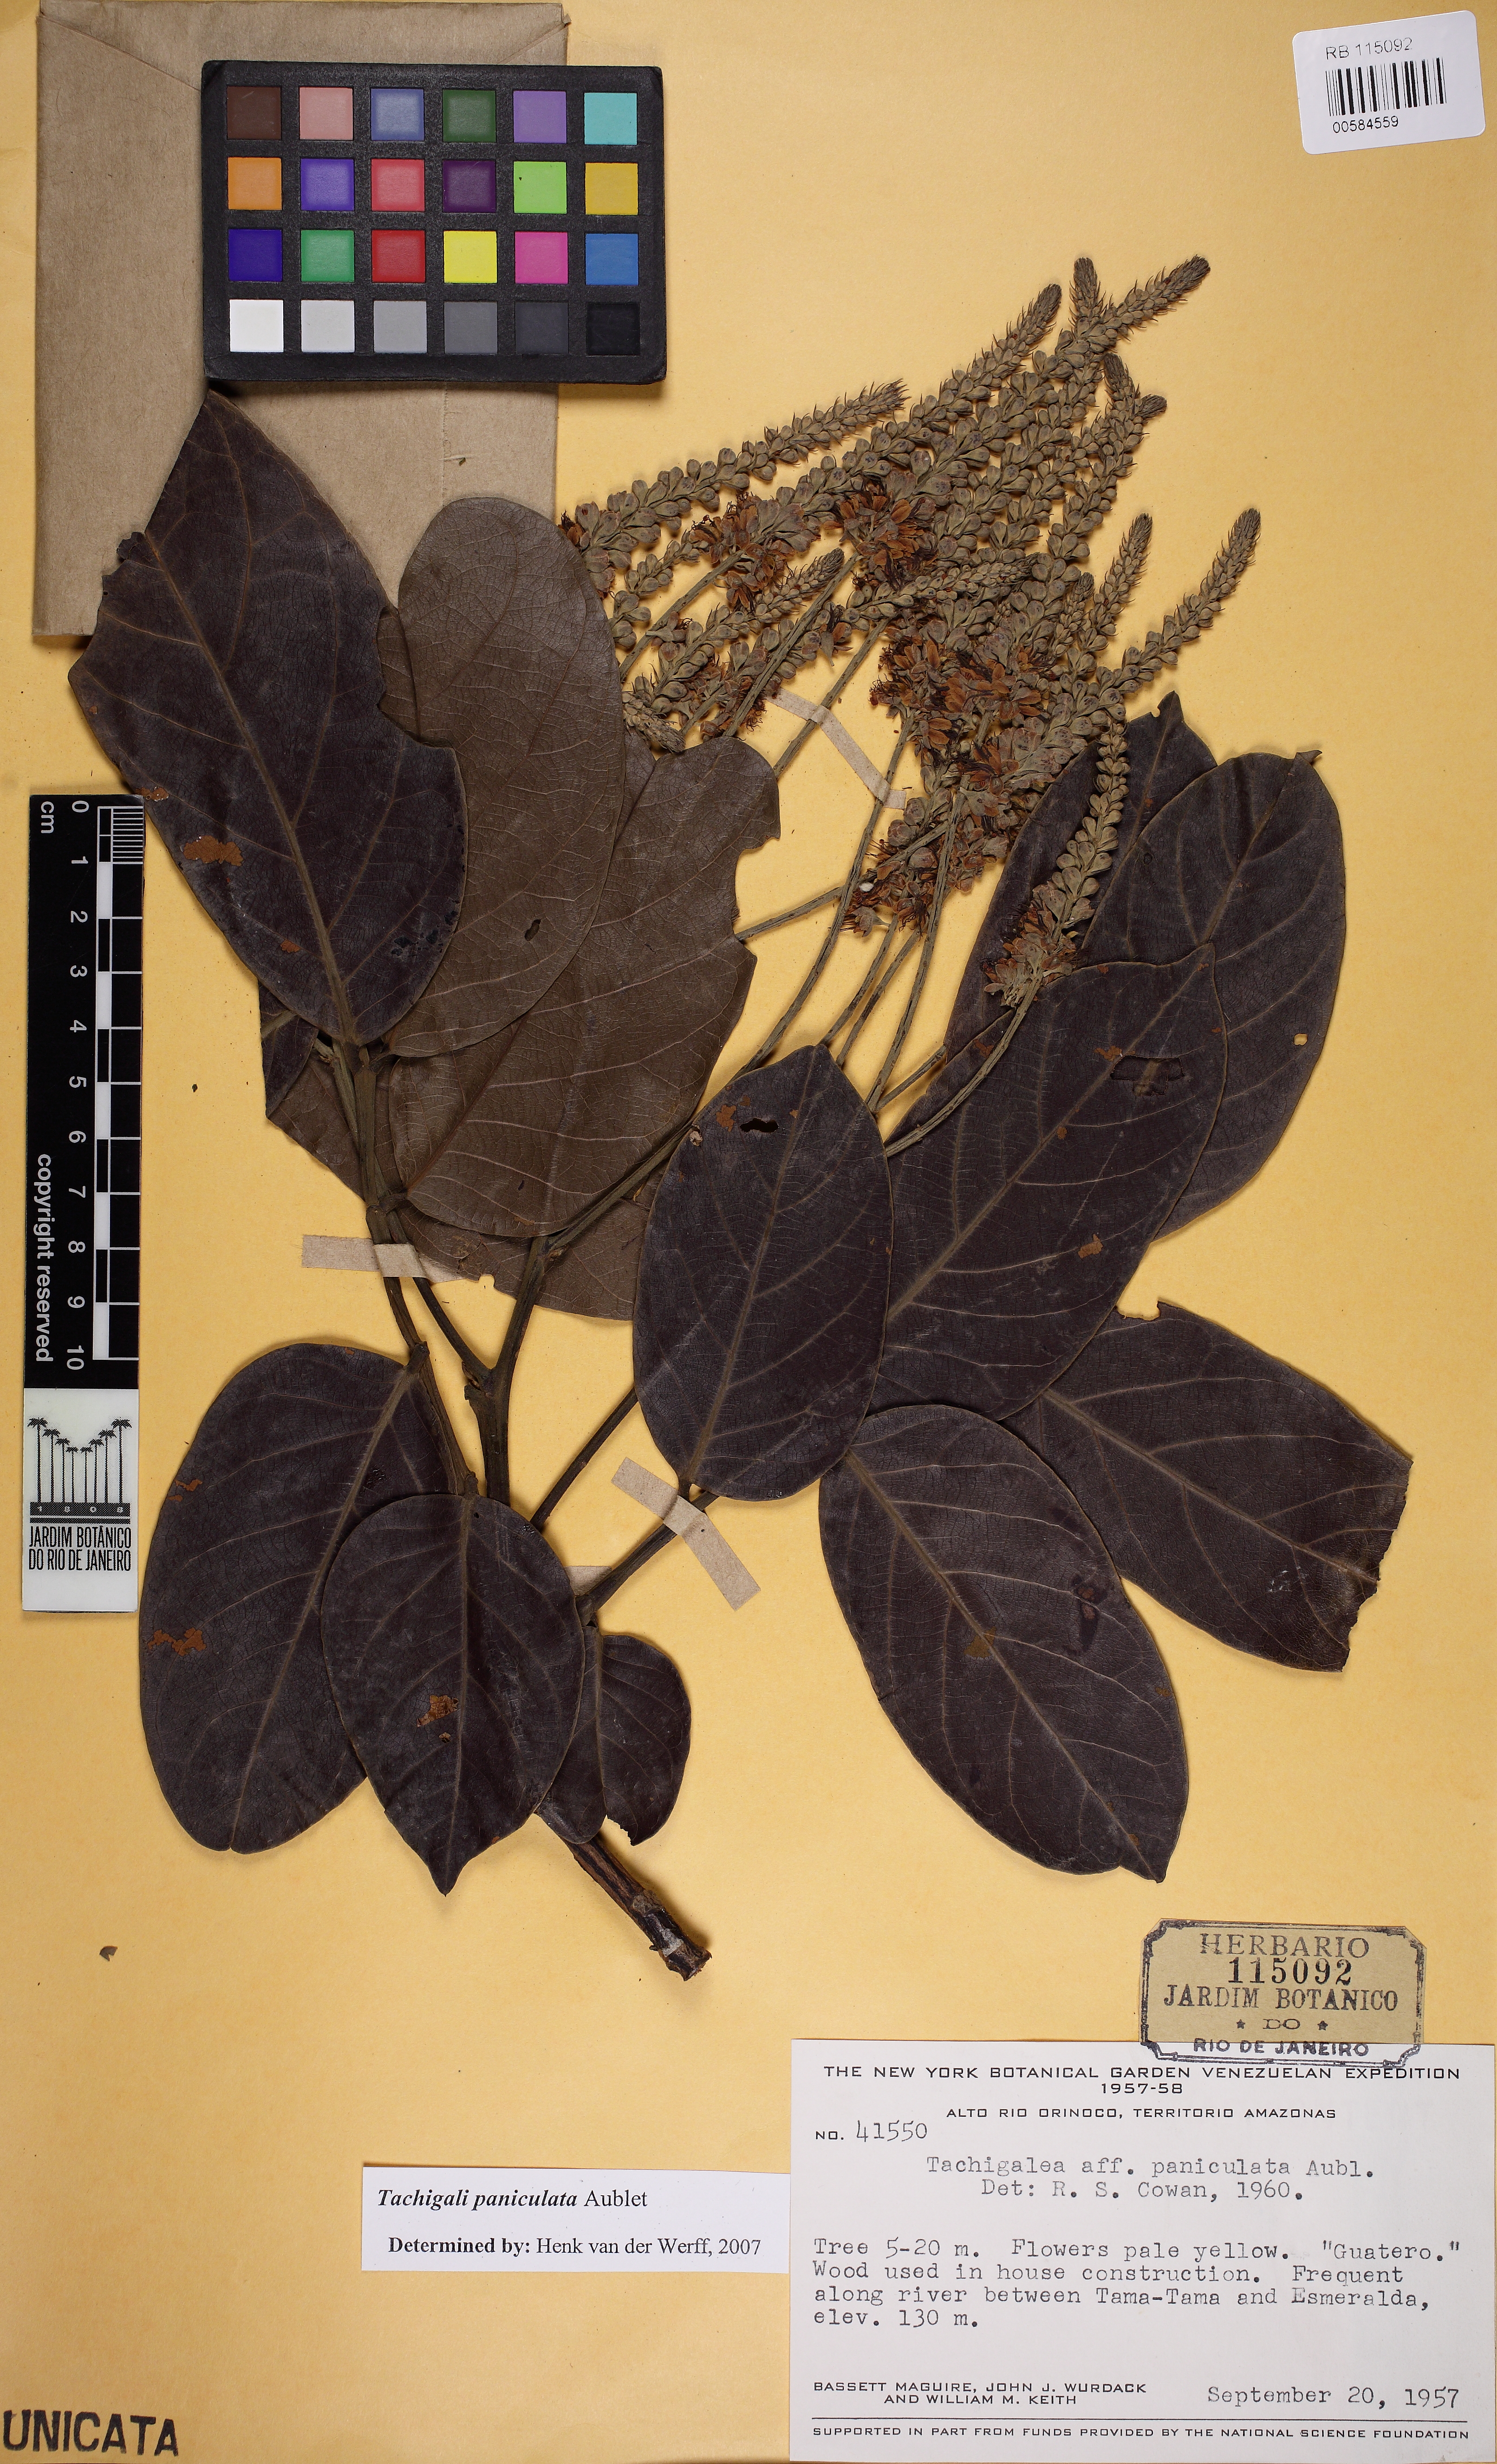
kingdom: Plantae
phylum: Tracheophyta
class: Magnoliopsida
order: Fabales
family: Fabaceae
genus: Tachigali
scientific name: Tachigali paniculata
